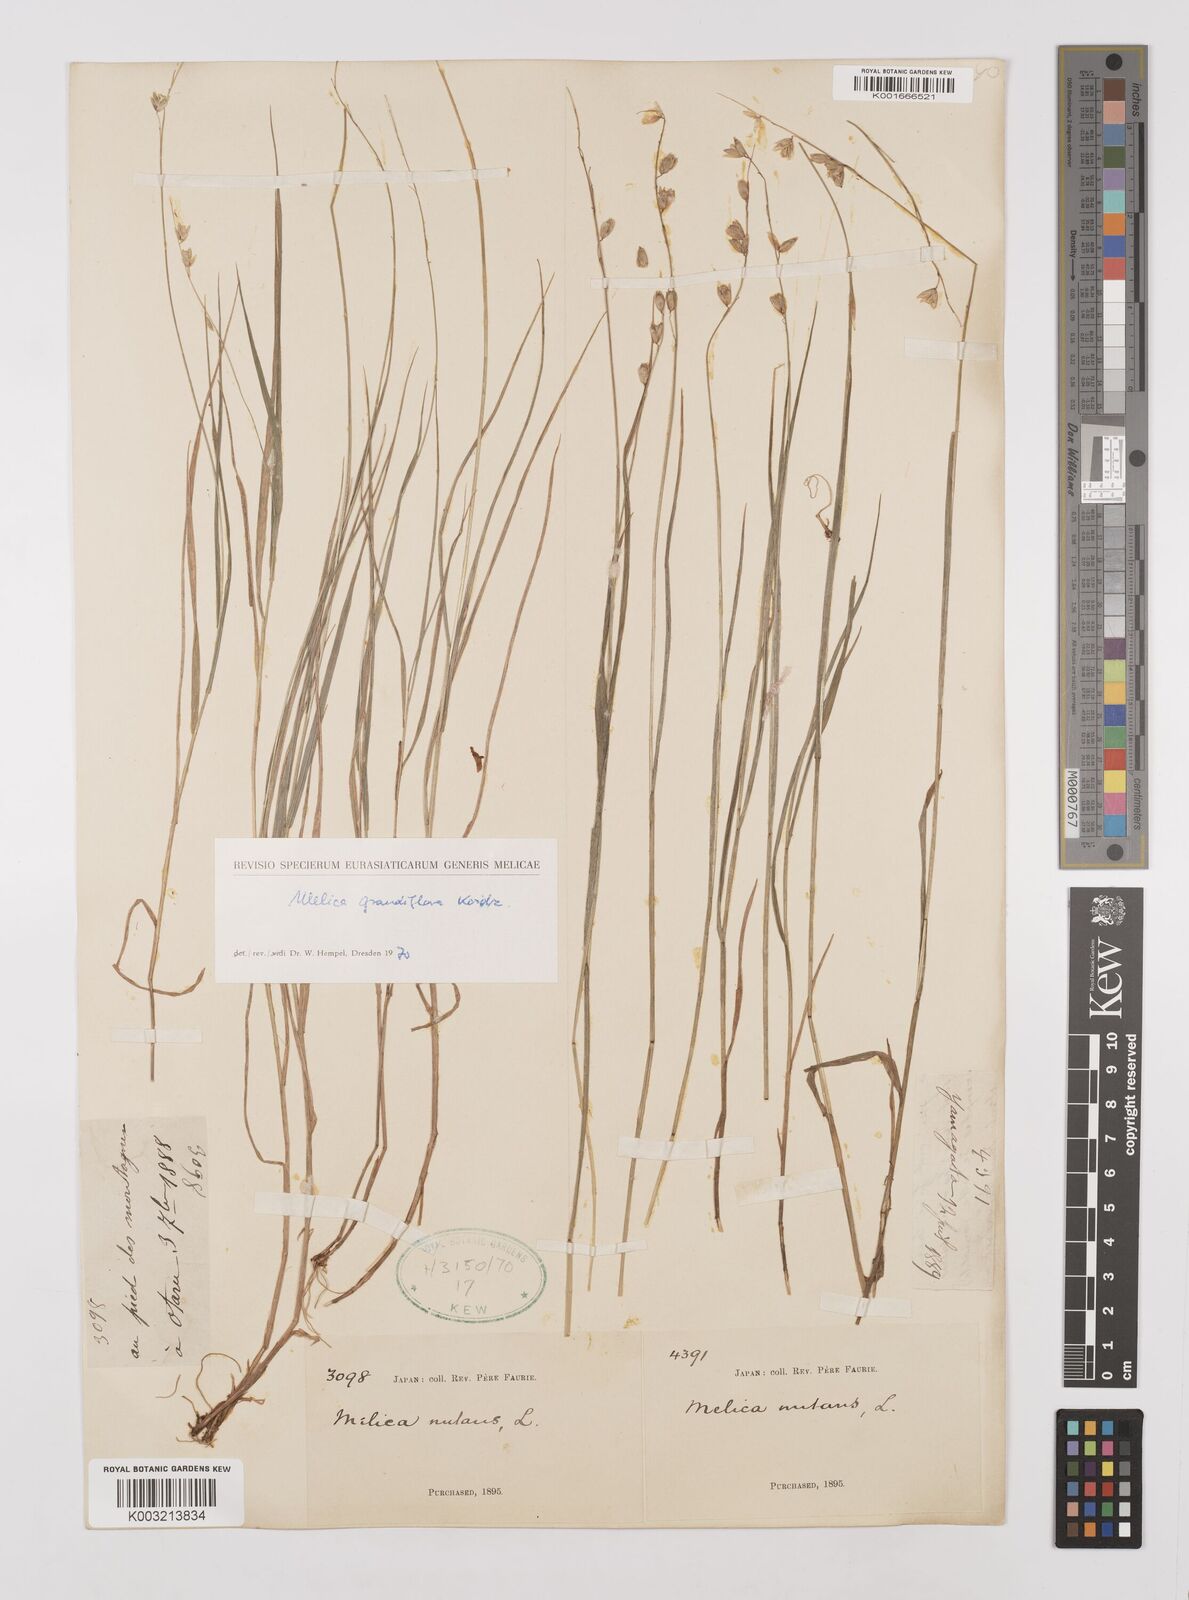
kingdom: Plantae
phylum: Tracheophyta
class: Liliopsida
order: Poales
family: Poaceae
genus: Melica
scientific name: Melica nutans
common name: Mountain melick
